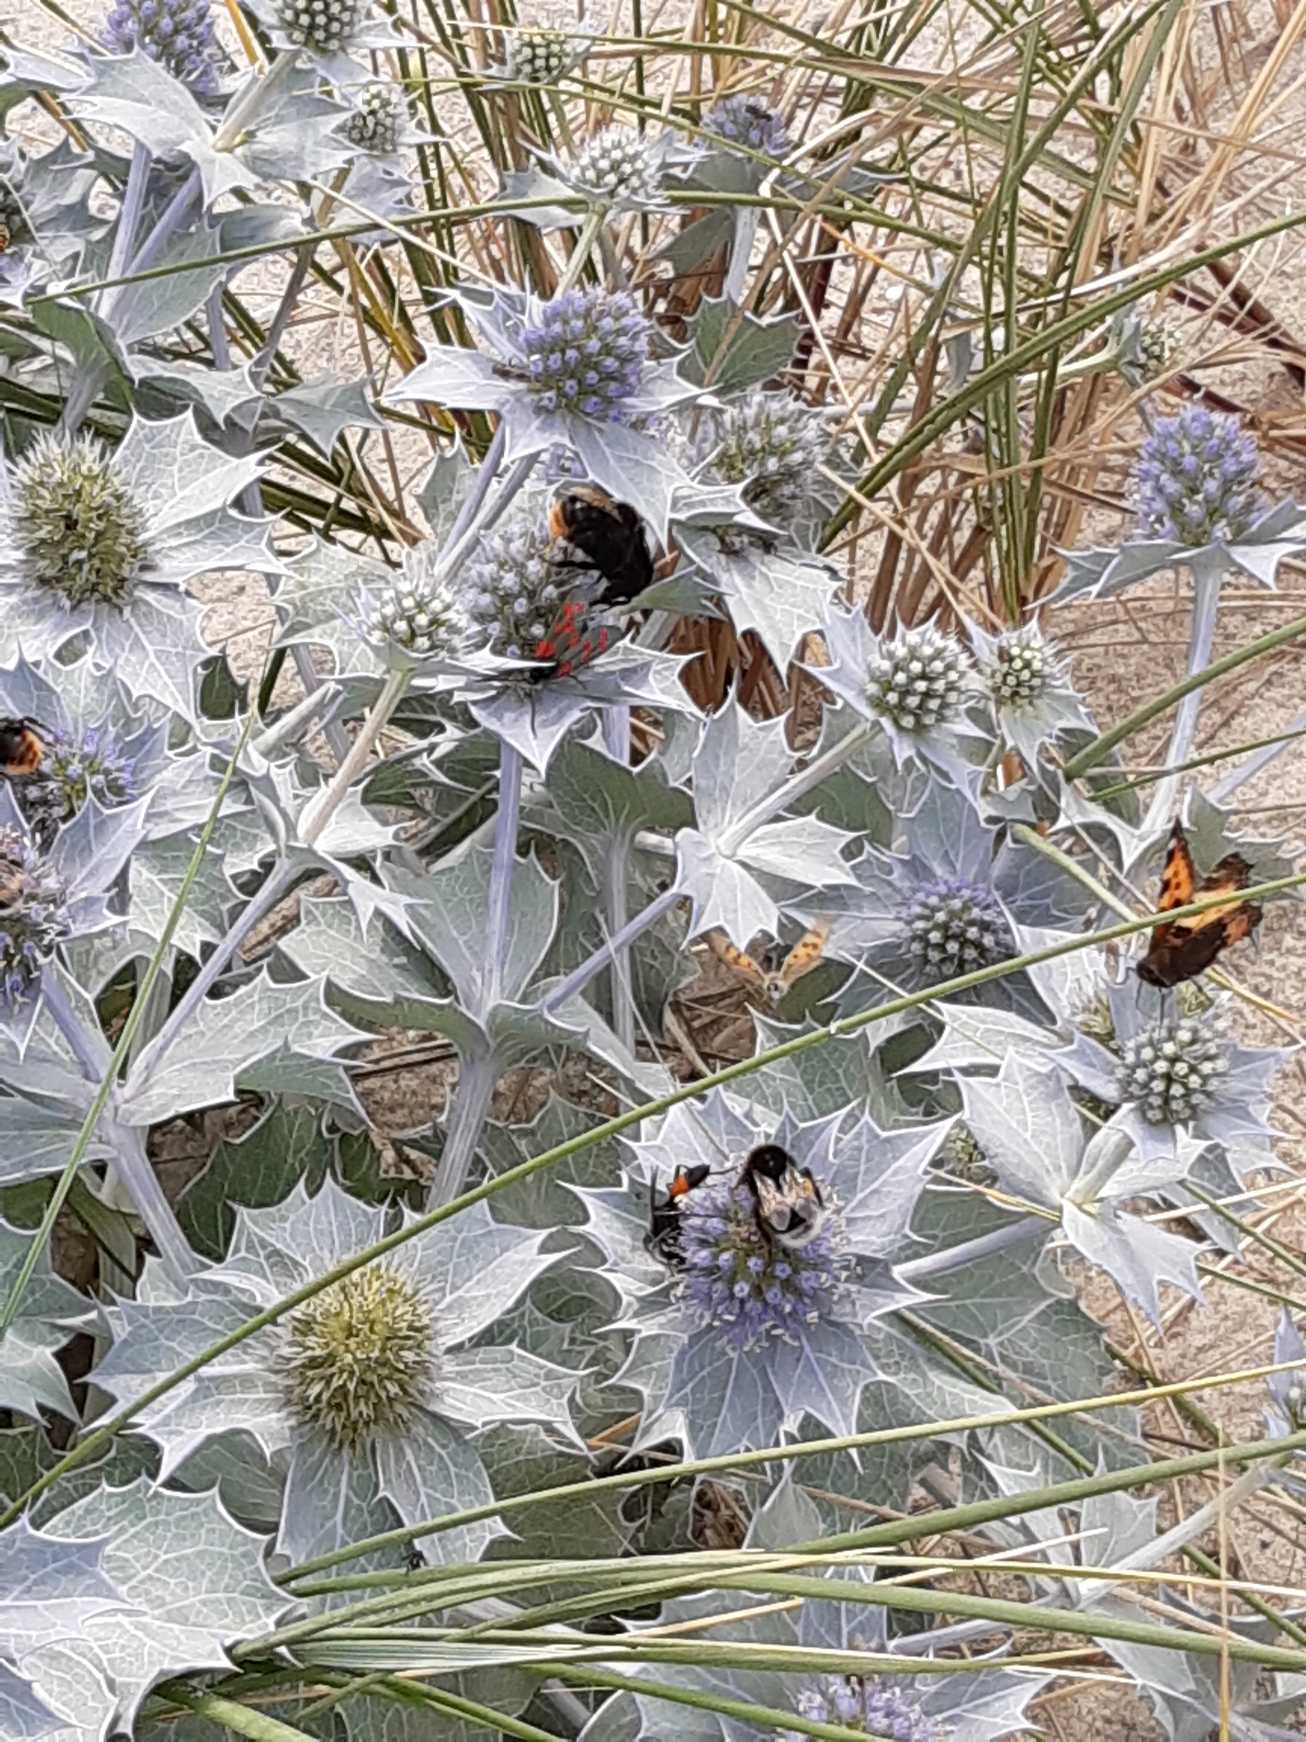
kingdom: Plantae
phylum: Tracheophyta
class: Magnoliopsida
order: Apiales
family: Apiaceae
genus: Eryngium
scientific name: Eryngium maritimum
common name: Strand-mandstro
